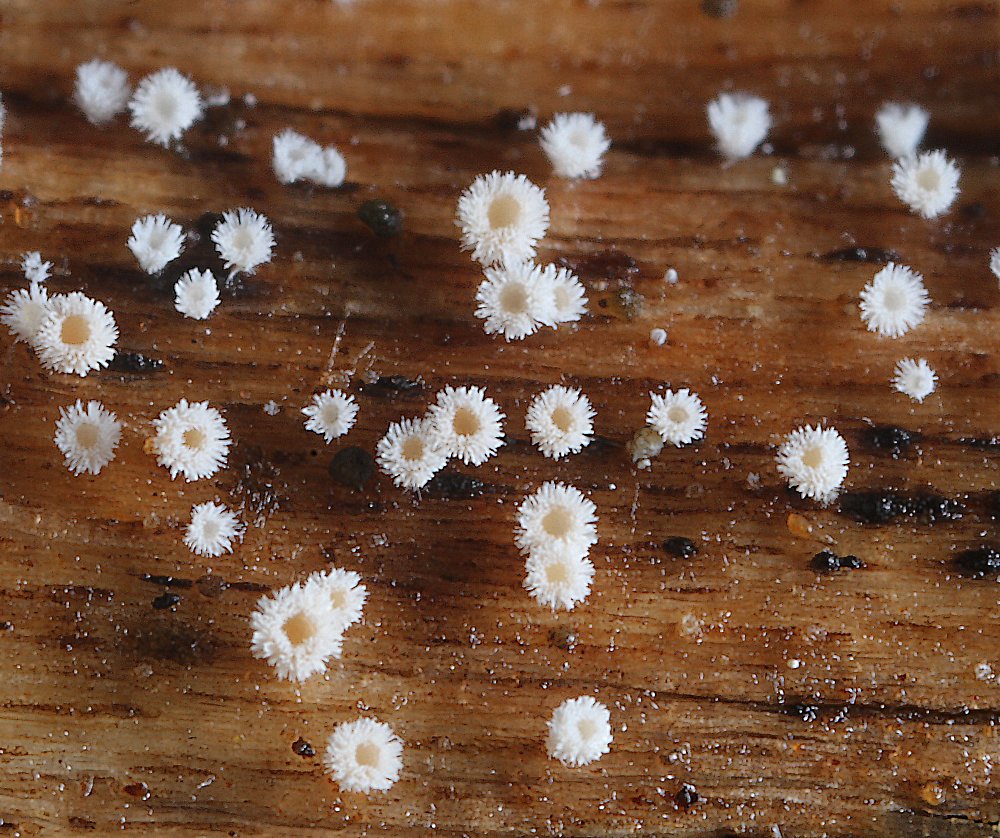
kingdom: Fungi
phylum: Ascomycota
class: Leotiomycetes
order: Helotiales
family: Hyaloscyphaceae
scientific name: Hyaloscyphaceae
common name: frynseskivefamilien
